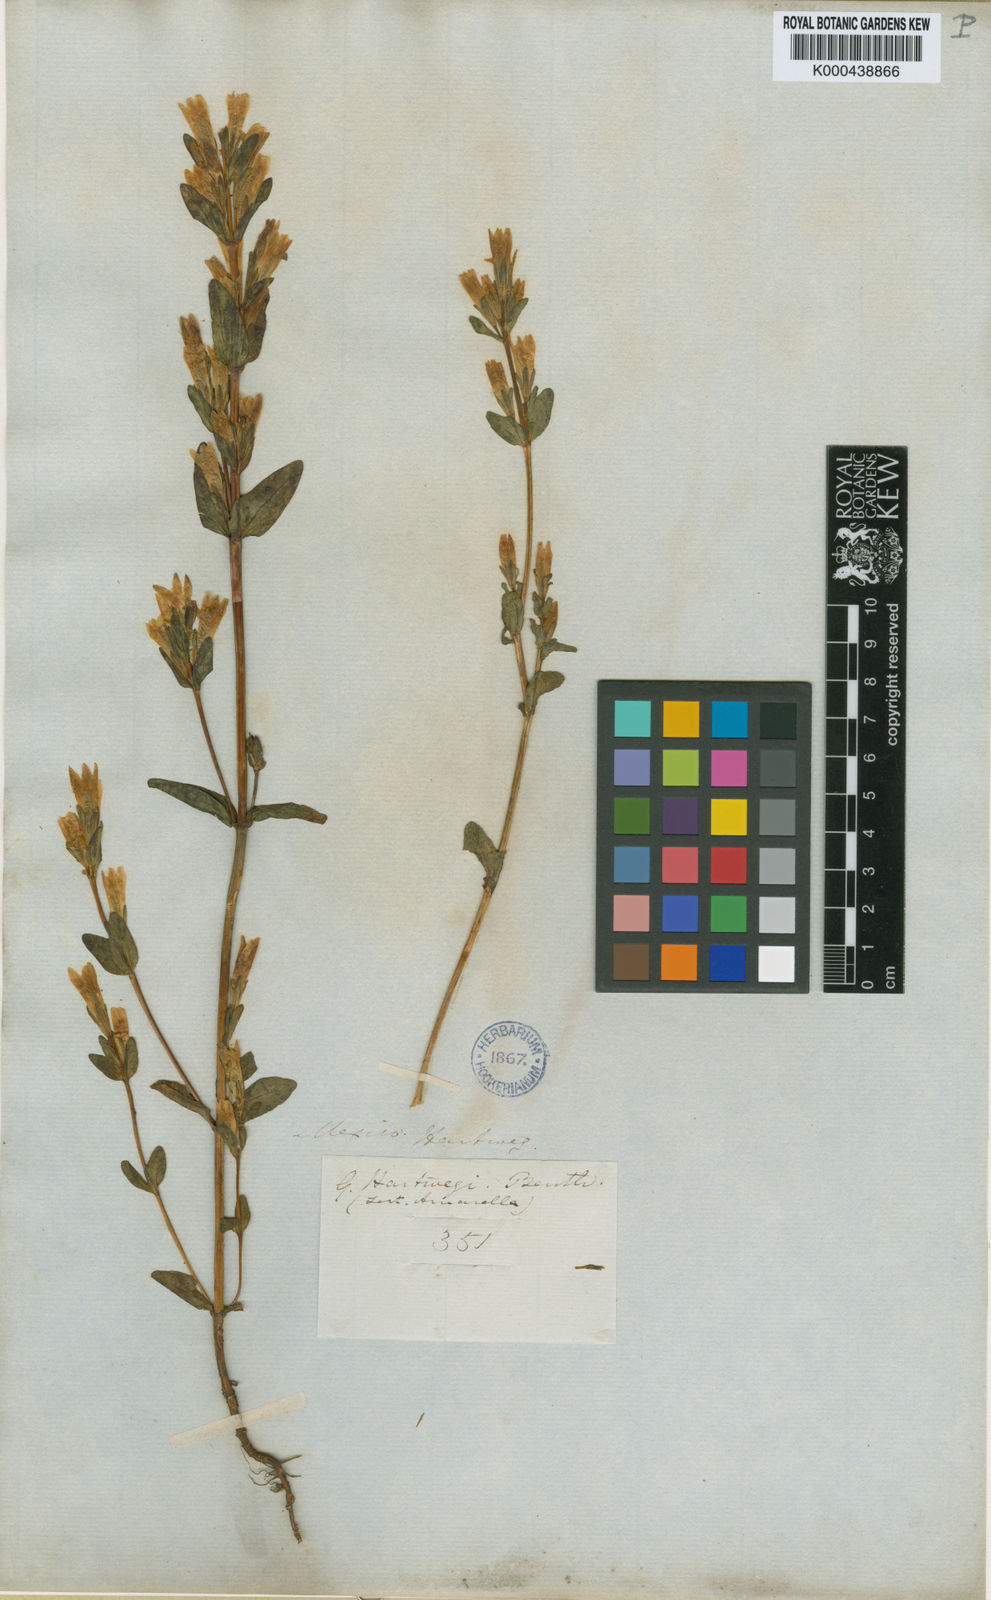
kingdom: Plantae
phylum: Tracheophyta
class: Magnoliopsida
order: Gentianales
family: Gentianaceae
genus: Gentianella
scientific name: Gentianella amarella
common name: Autumn gentian
